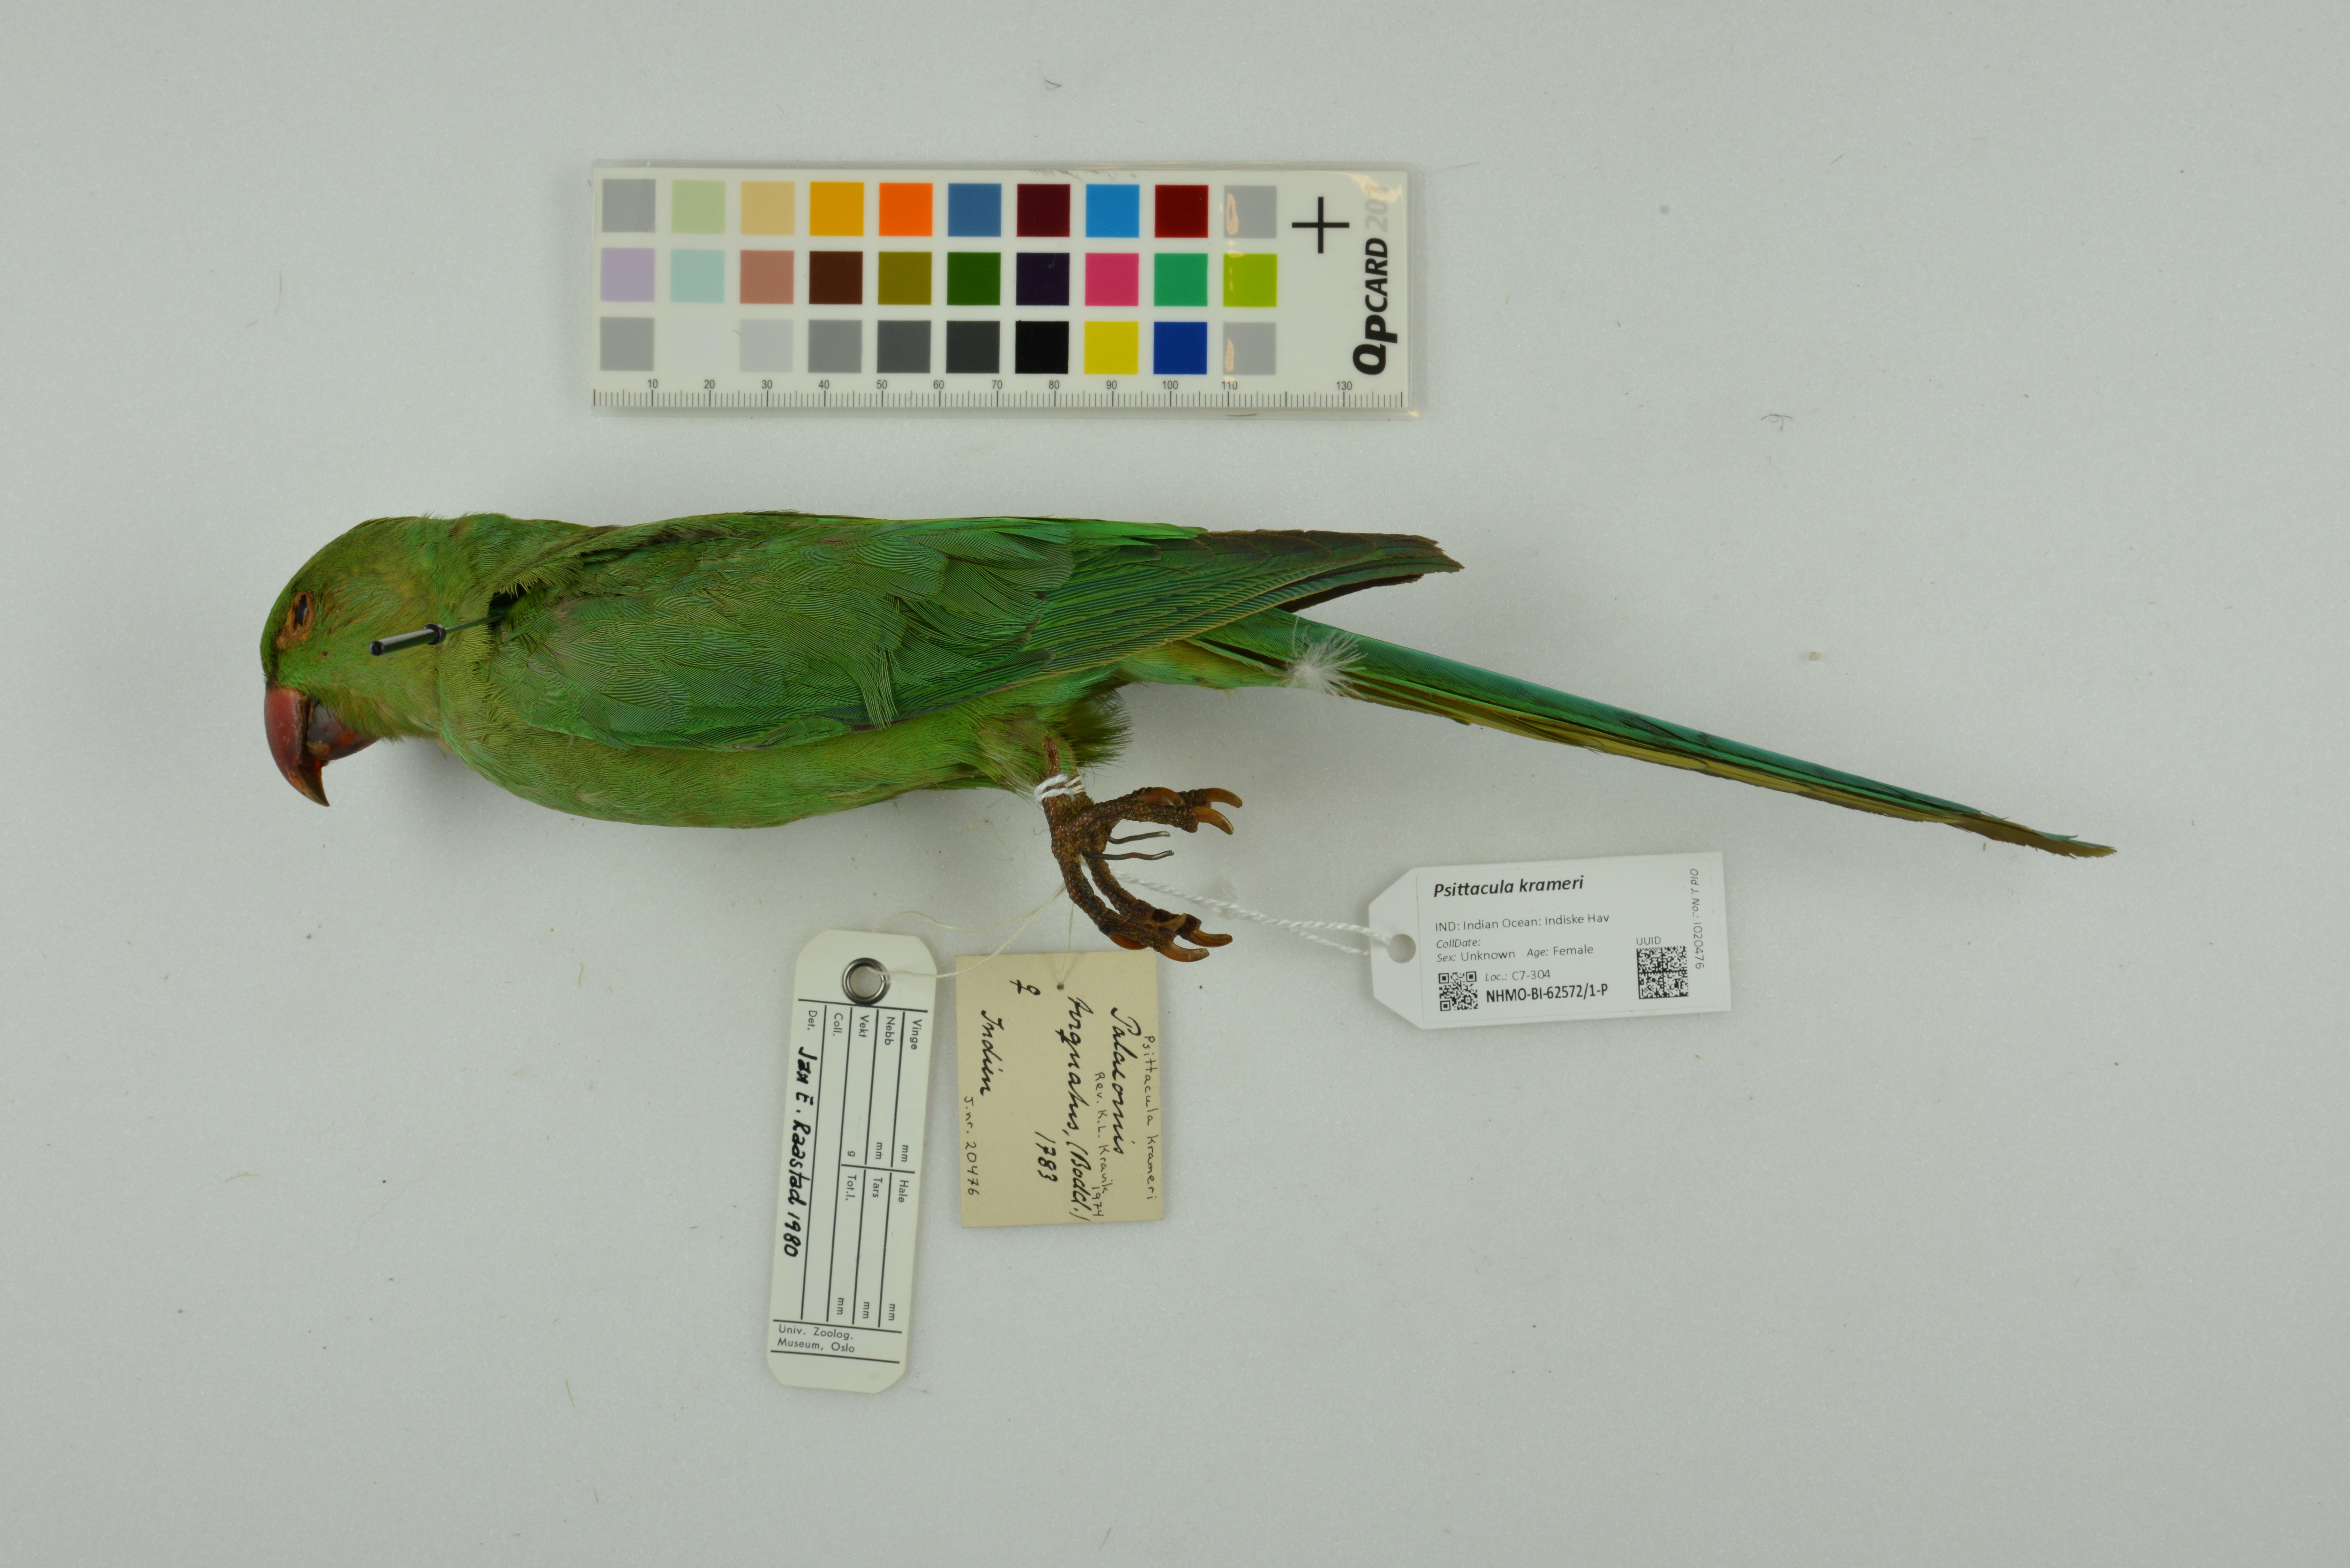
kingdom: Animalia
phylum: Chordata
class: Aves
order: Psittaciformes
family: Psittacidae
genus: Psittacula
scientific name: Psittacula krameri
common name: Rose-ringed parakeet
